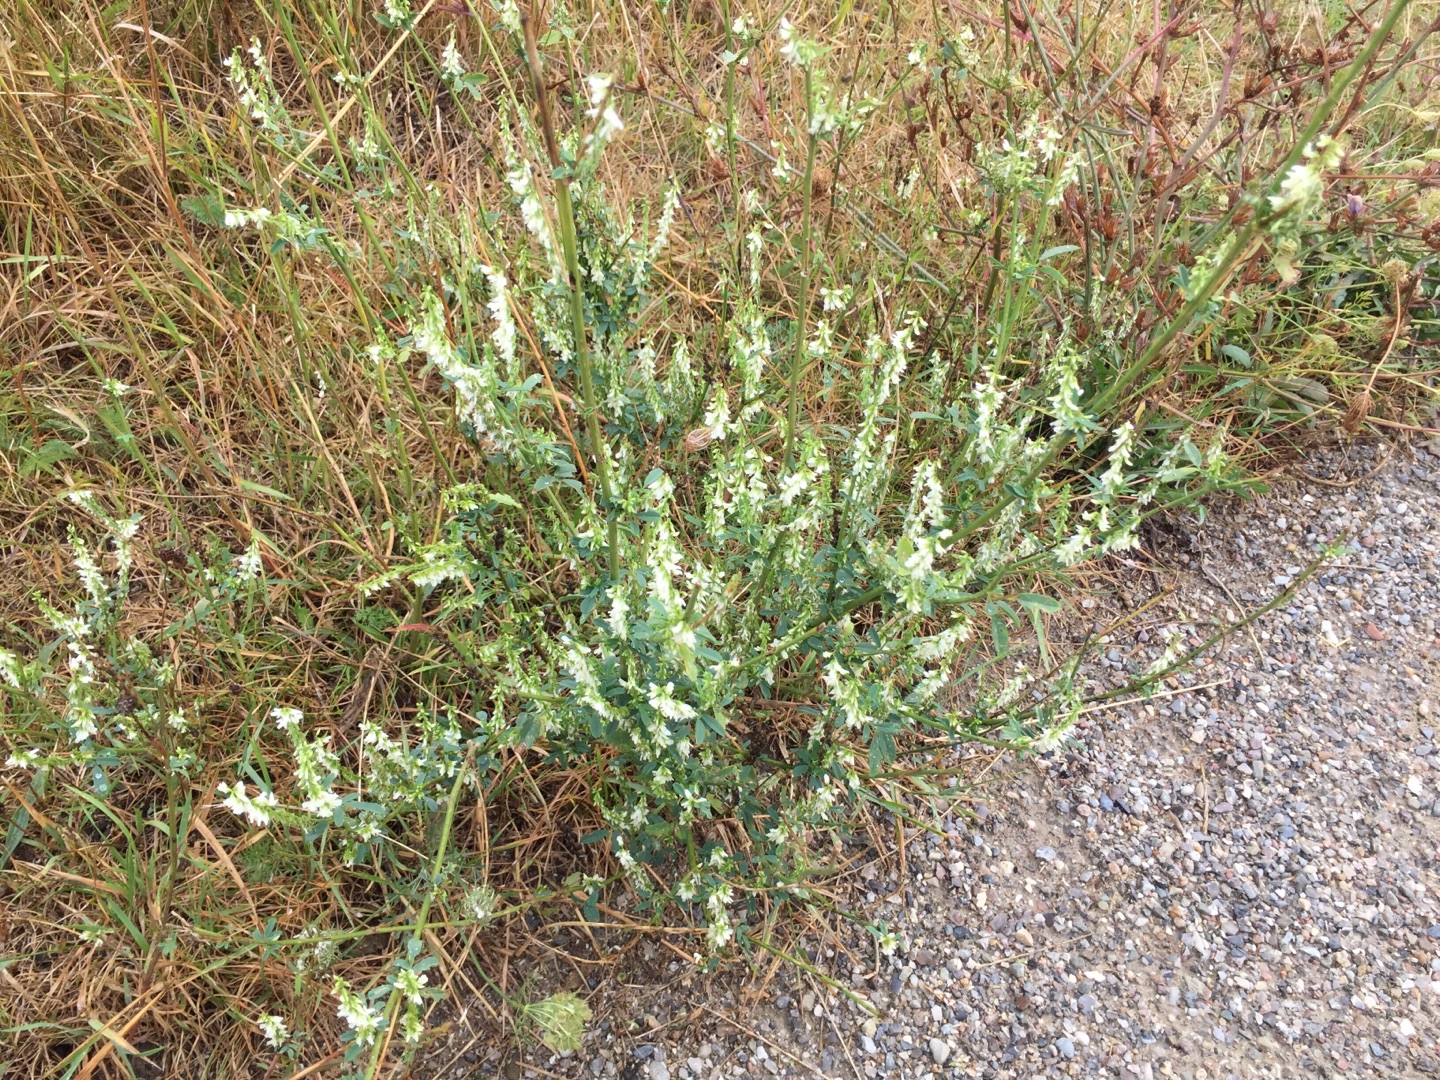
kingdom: Plantae
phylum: Tracheophyta
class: Magnoliopsida
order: Fabales
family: Fabaceae
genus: Melilotus
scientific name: Melilotus albus
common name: Hvid stenkløver
